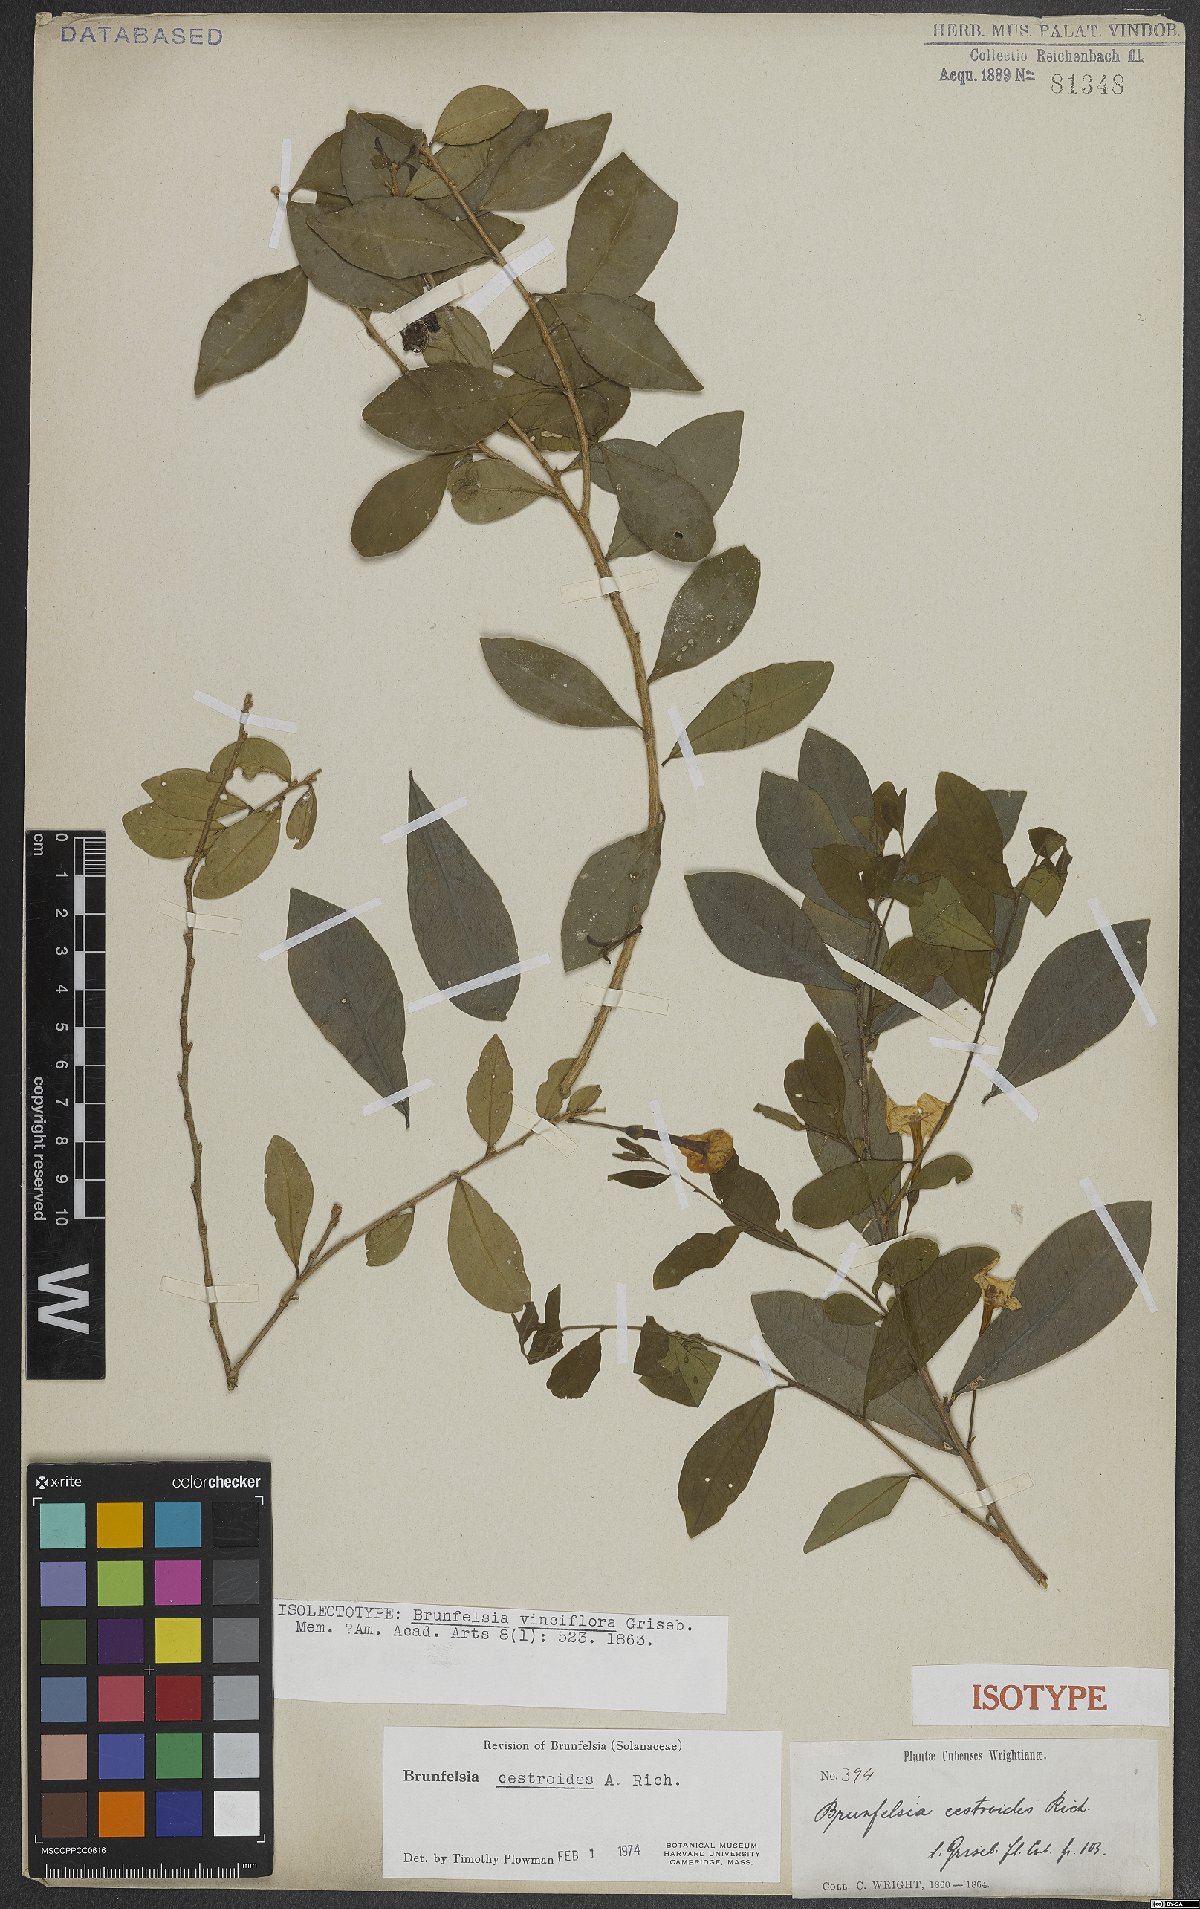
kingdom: Plantae
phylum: Tracheophyta
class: Magnoliopsida
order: Solanales
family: Solanaceae
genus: Brunfelsia
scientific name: Brunfelsia cestroides
